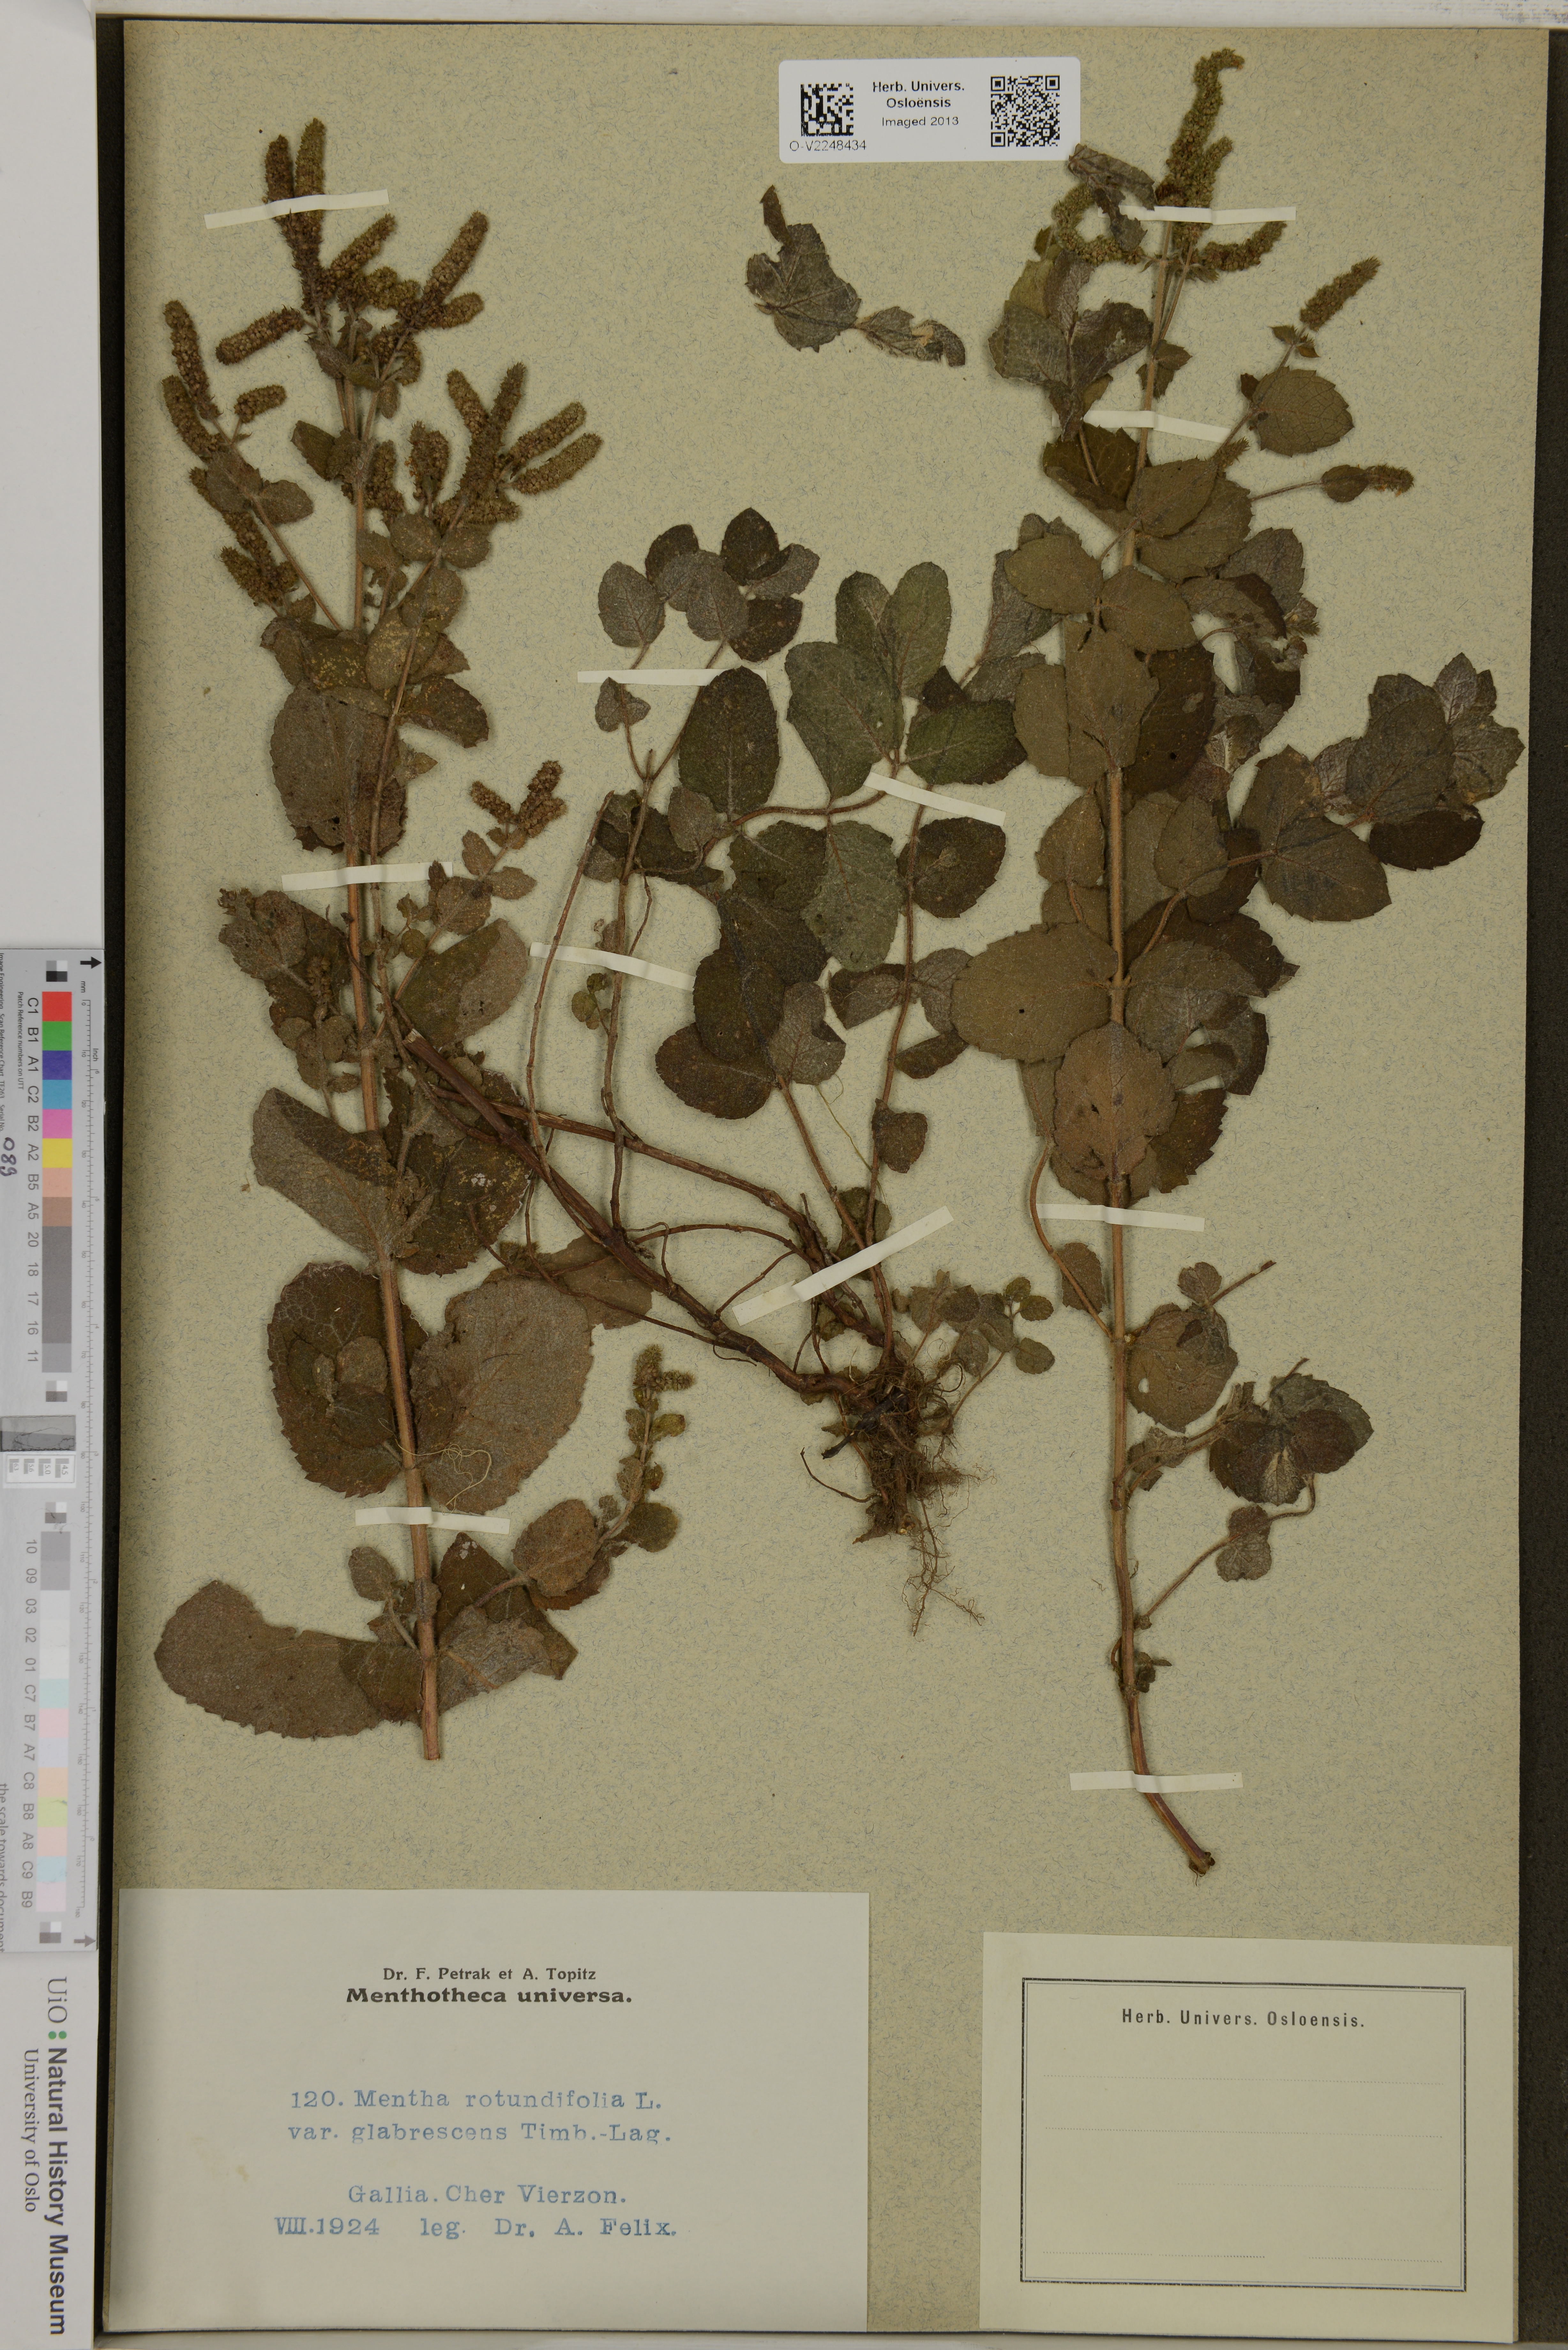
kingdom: Plantae
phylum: Tracheophyta
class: Magnoliopsida
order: Lamiales
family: Lamiaceae
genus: Mentha
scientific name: Mentha rotundifolia
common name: Bigleaf mint
